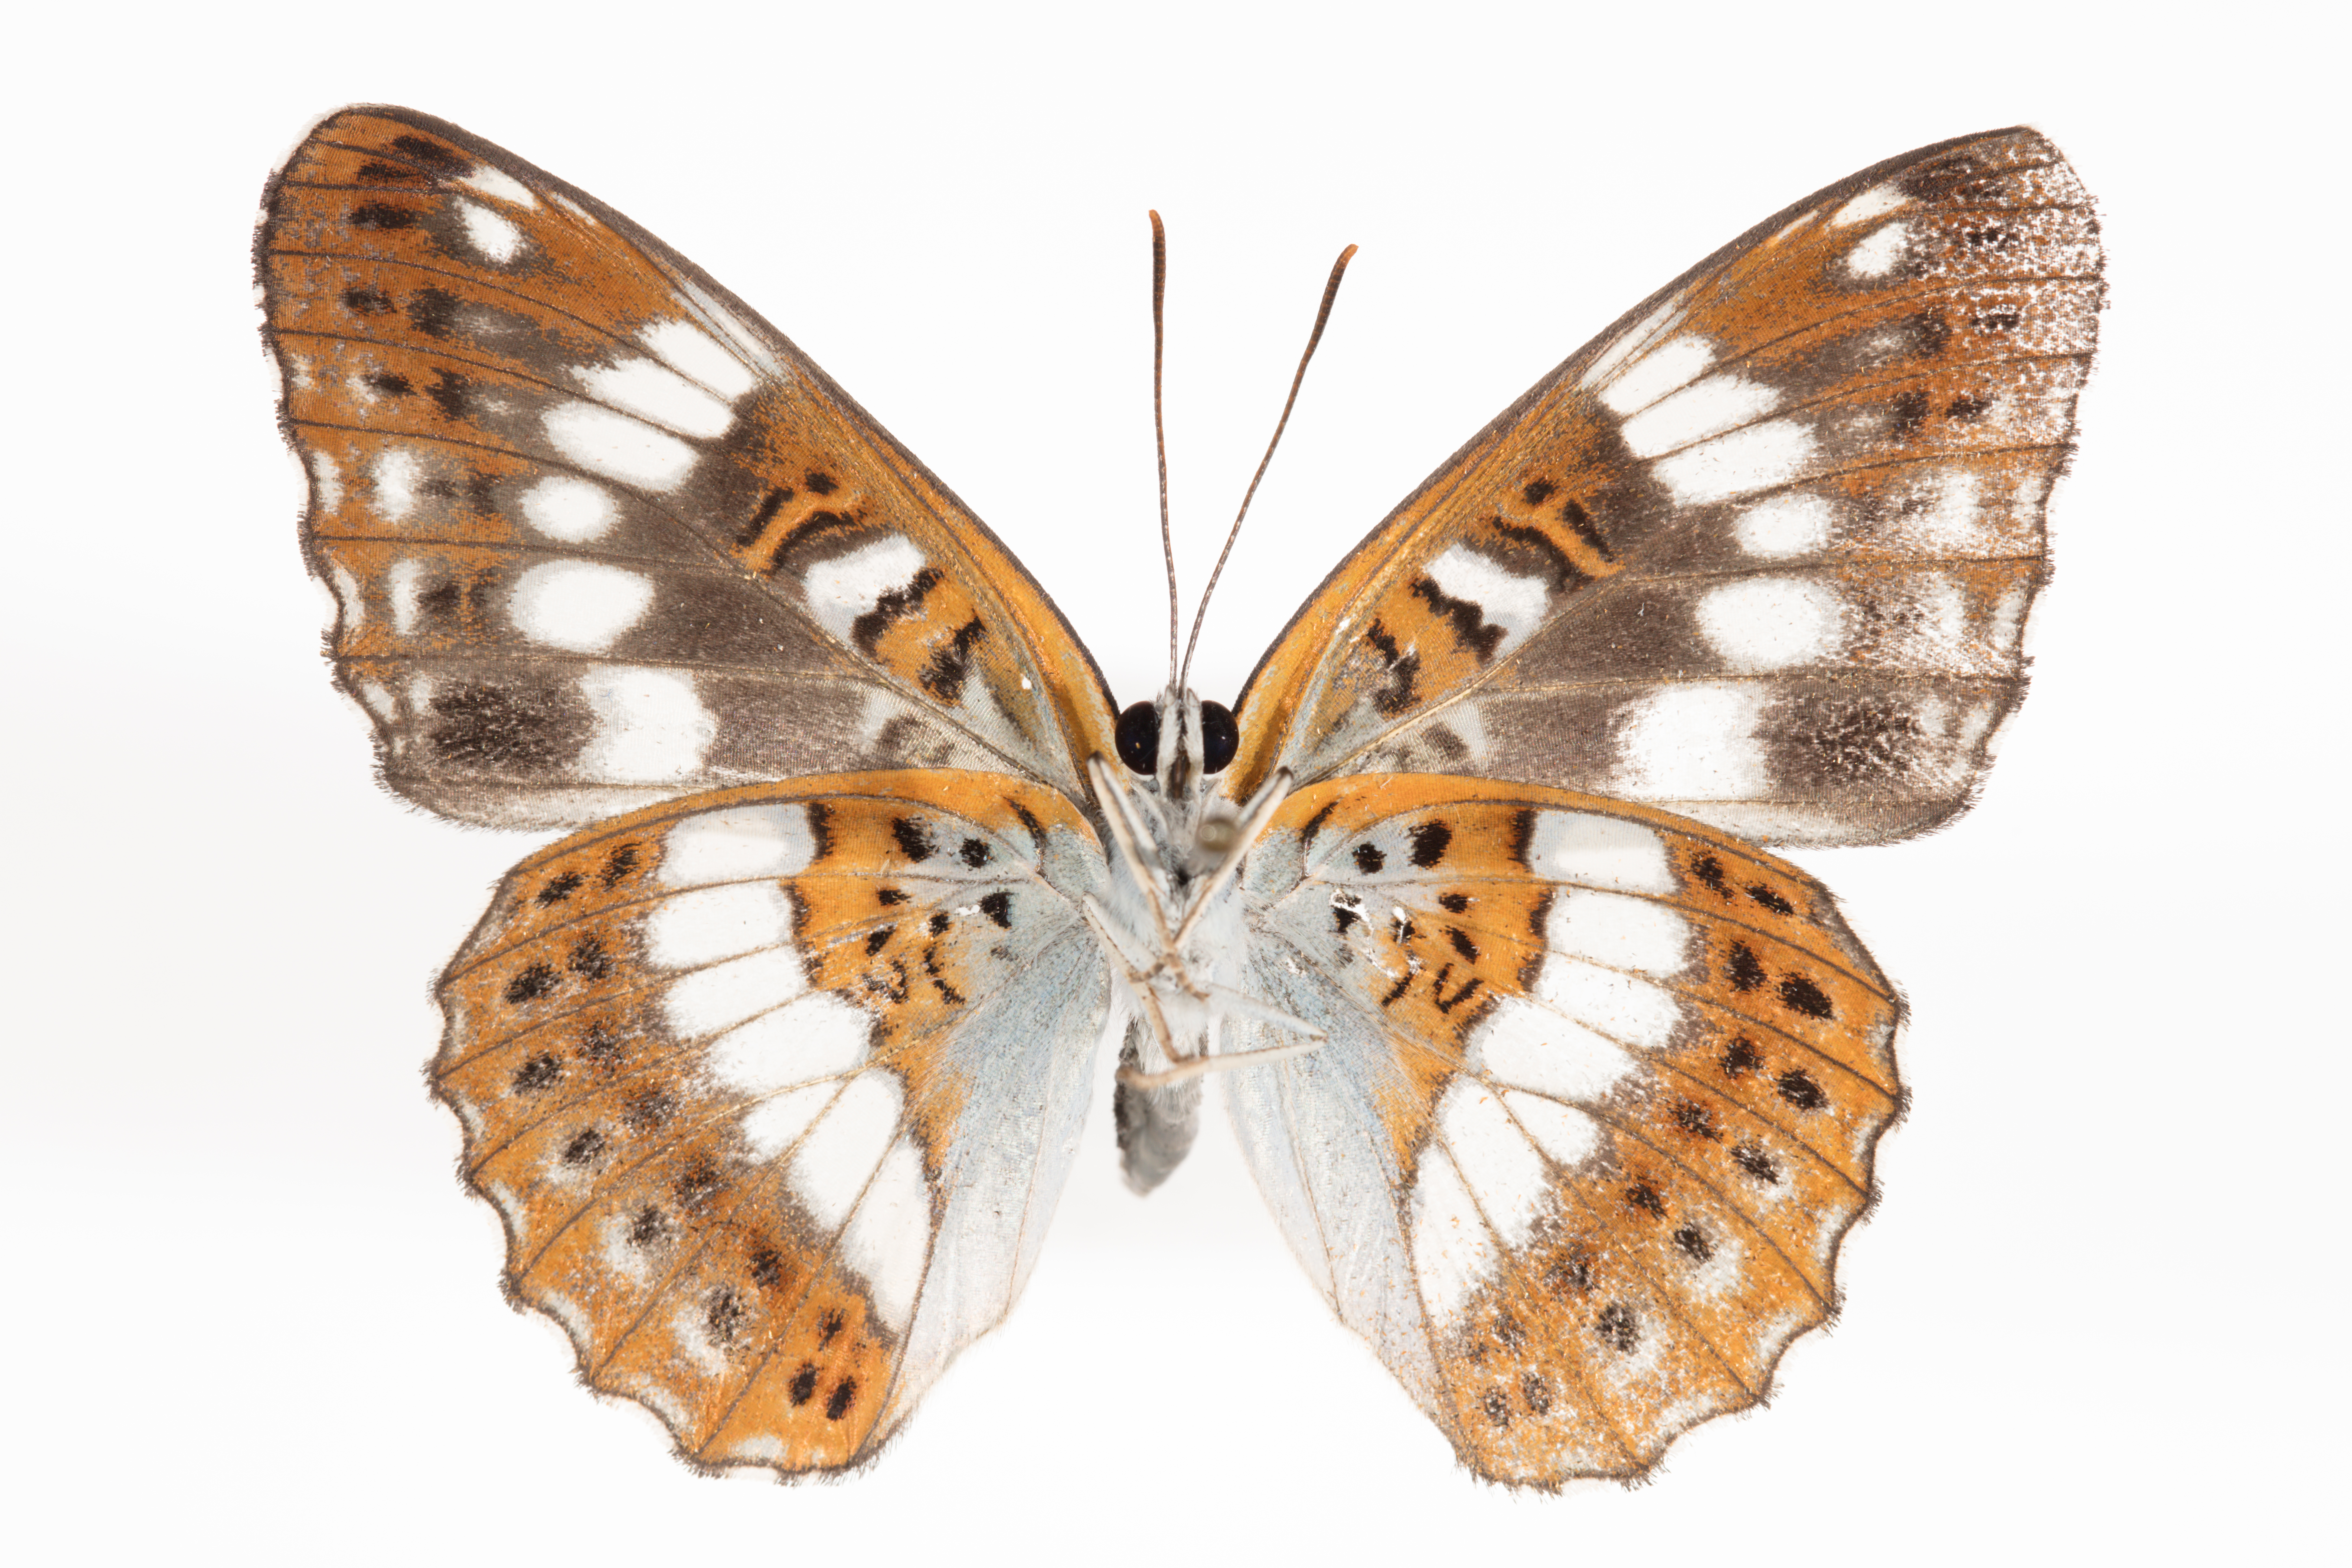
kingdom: Animalia
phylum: Arthropoda
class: Insecta
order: Lepidoptera
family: Nymphalidae
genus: Ladoga
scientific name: Ladoga camilla
